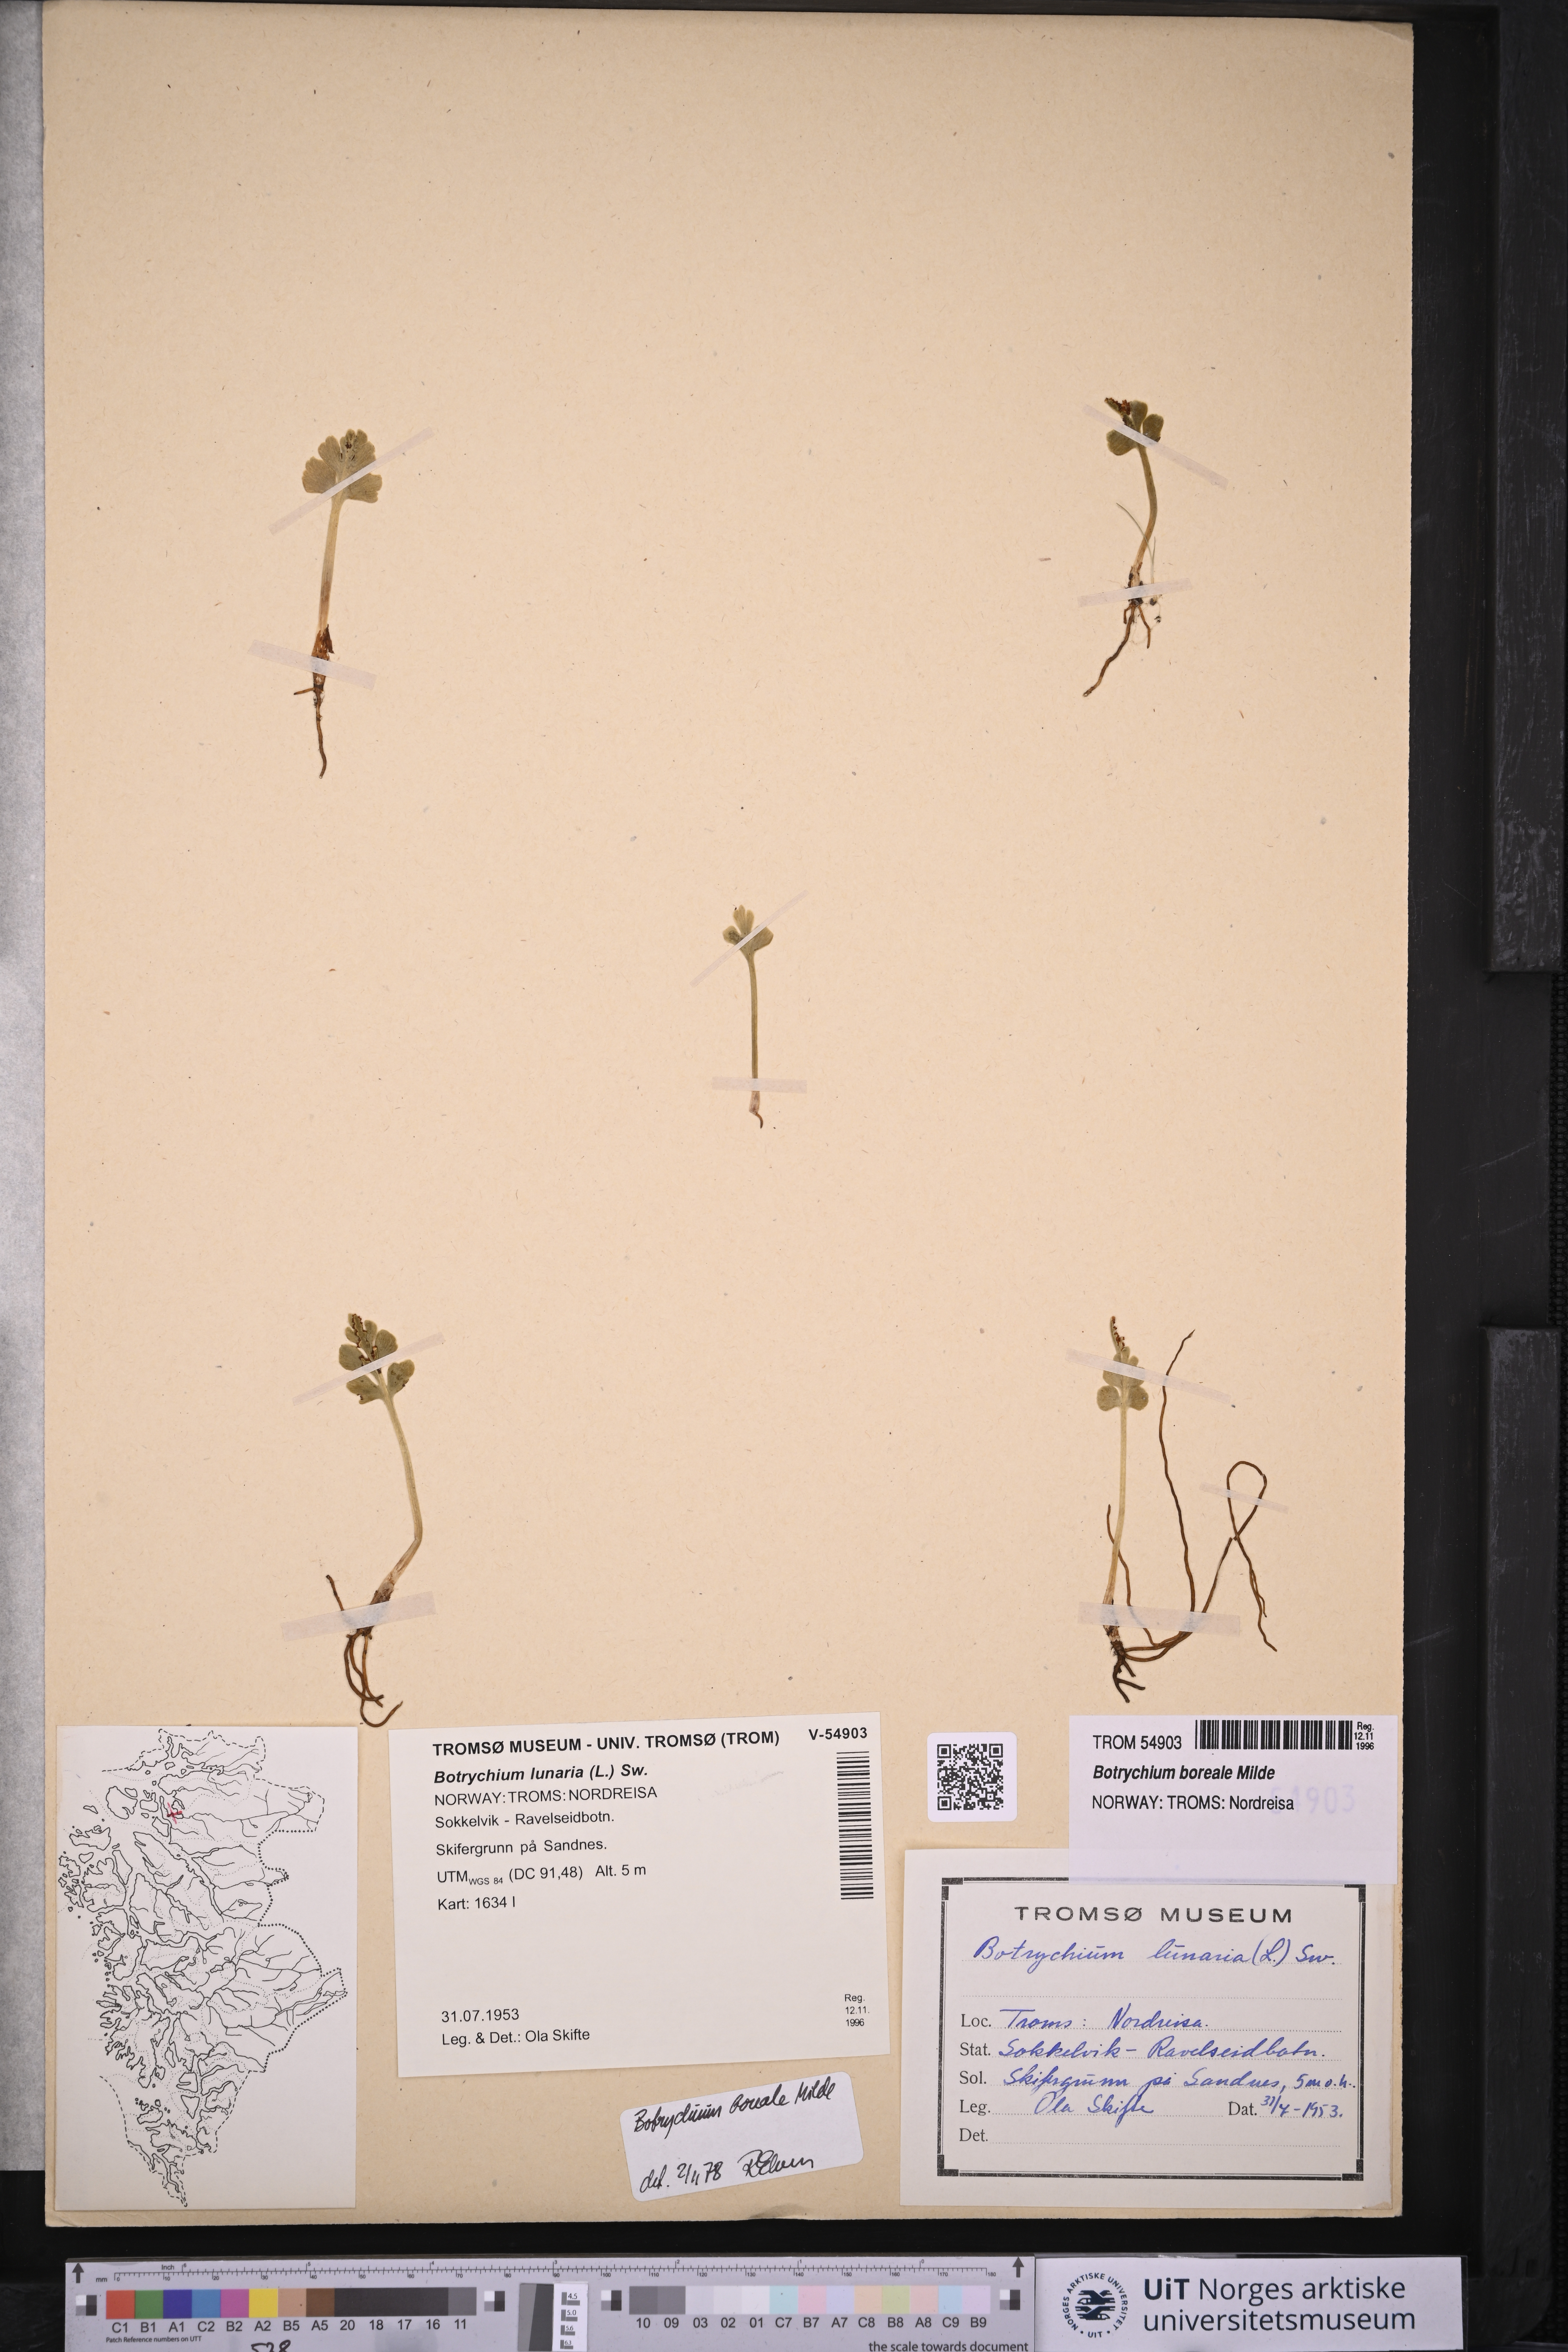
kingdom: Plantae
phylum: Tracheophyta
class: Polypodiopsida
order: Ophioglossales
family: Ophioglossaceae
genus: Botrychium
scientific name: Botrychium boreale
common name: Boreal moonwort
